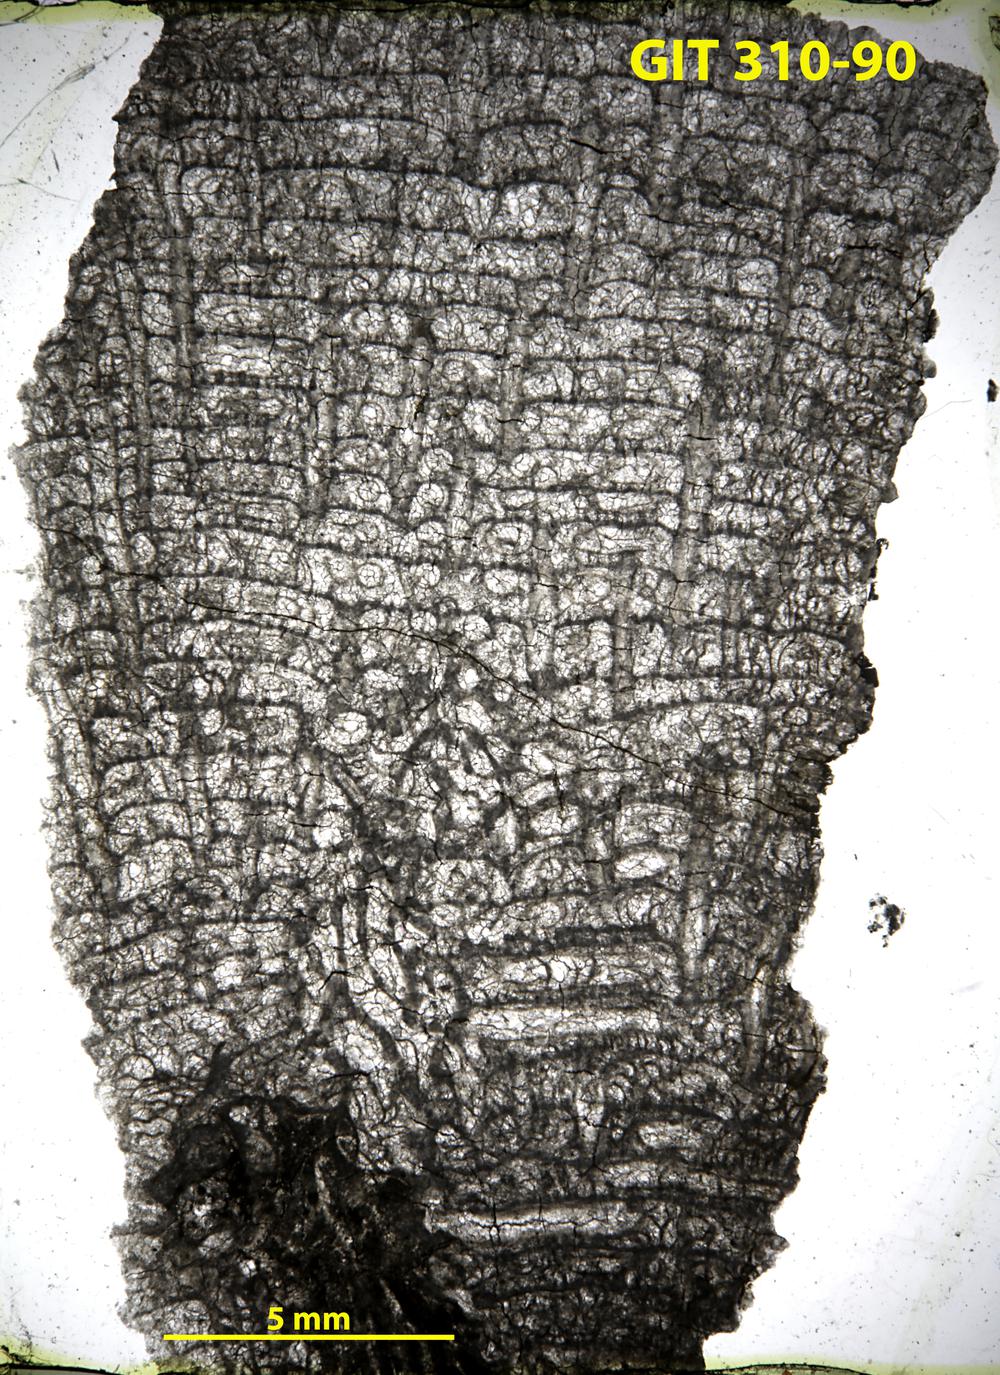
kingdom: Animalia
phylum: Porifera
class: Hexactinellida
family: Cliefdenellidae
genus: Cliefdenella
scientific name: Cliefdenella
